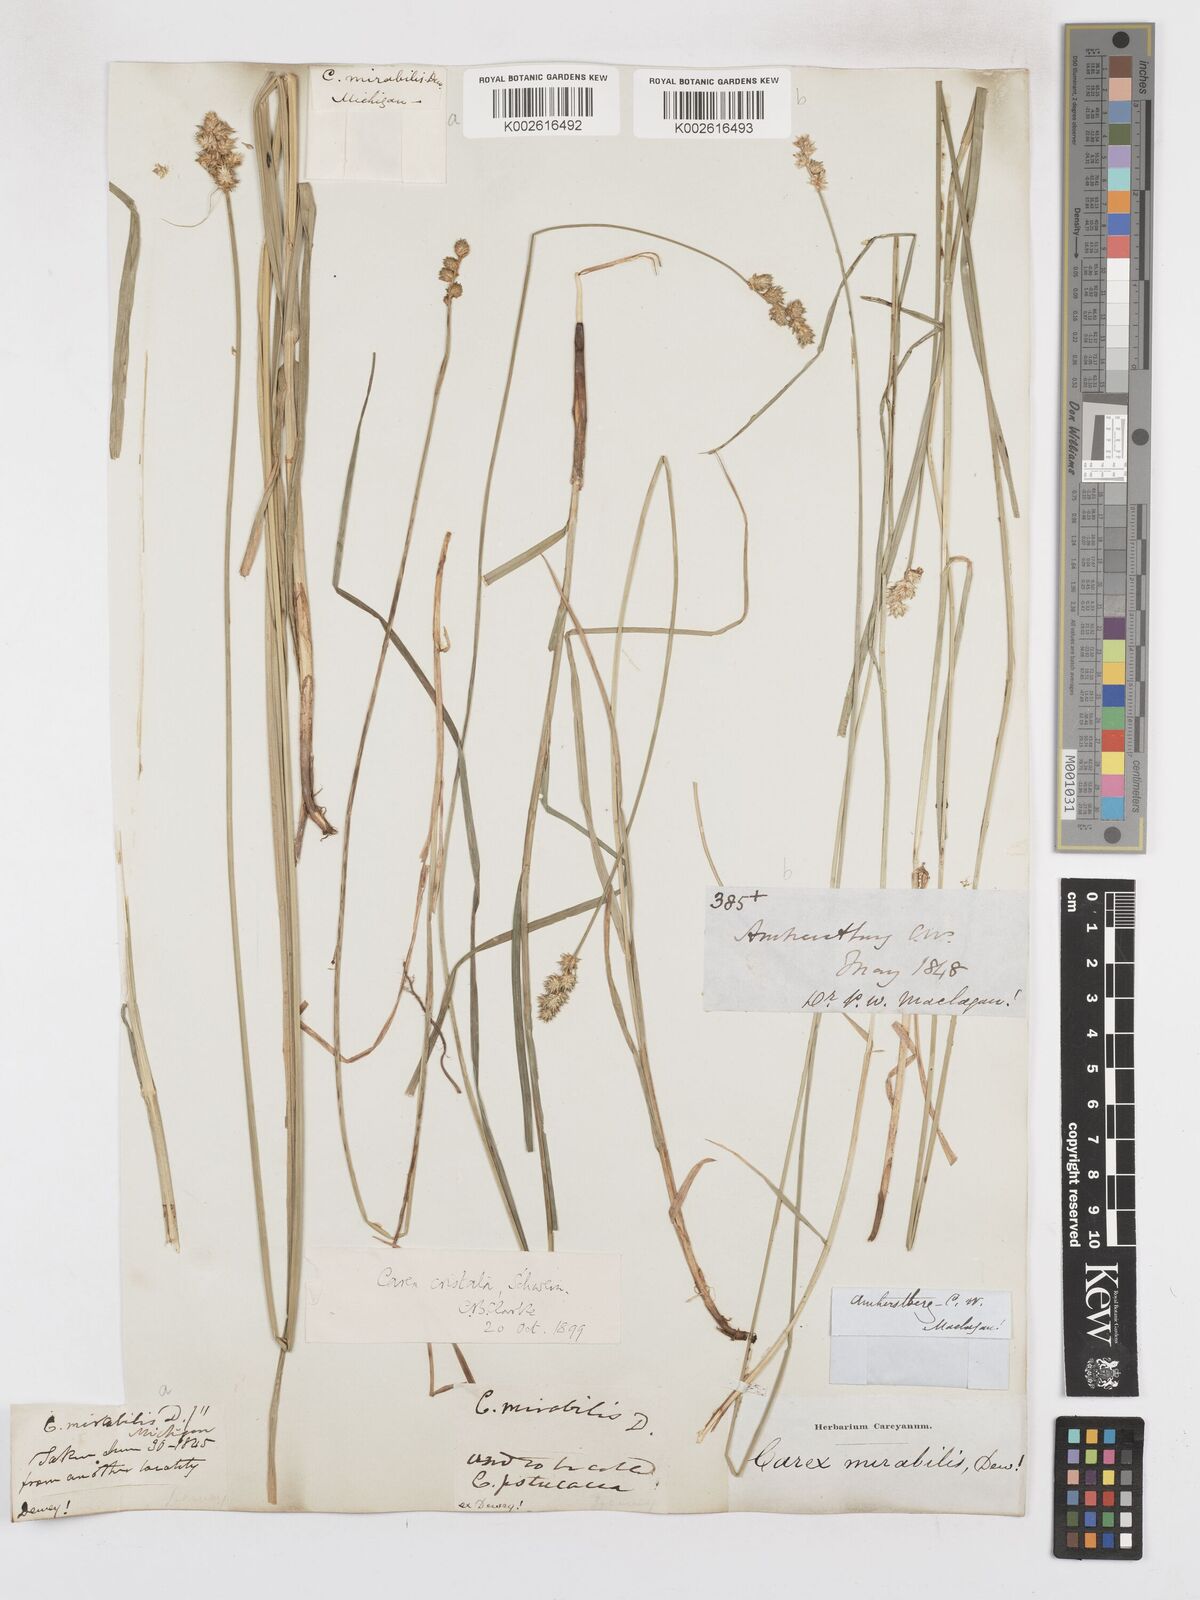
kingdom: Plantae
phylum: Tracheophyta
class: Liliopsida
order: Poales
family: Cyperaceae
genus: Carex
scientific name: Carex cristatella
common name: Crested oval sedge
